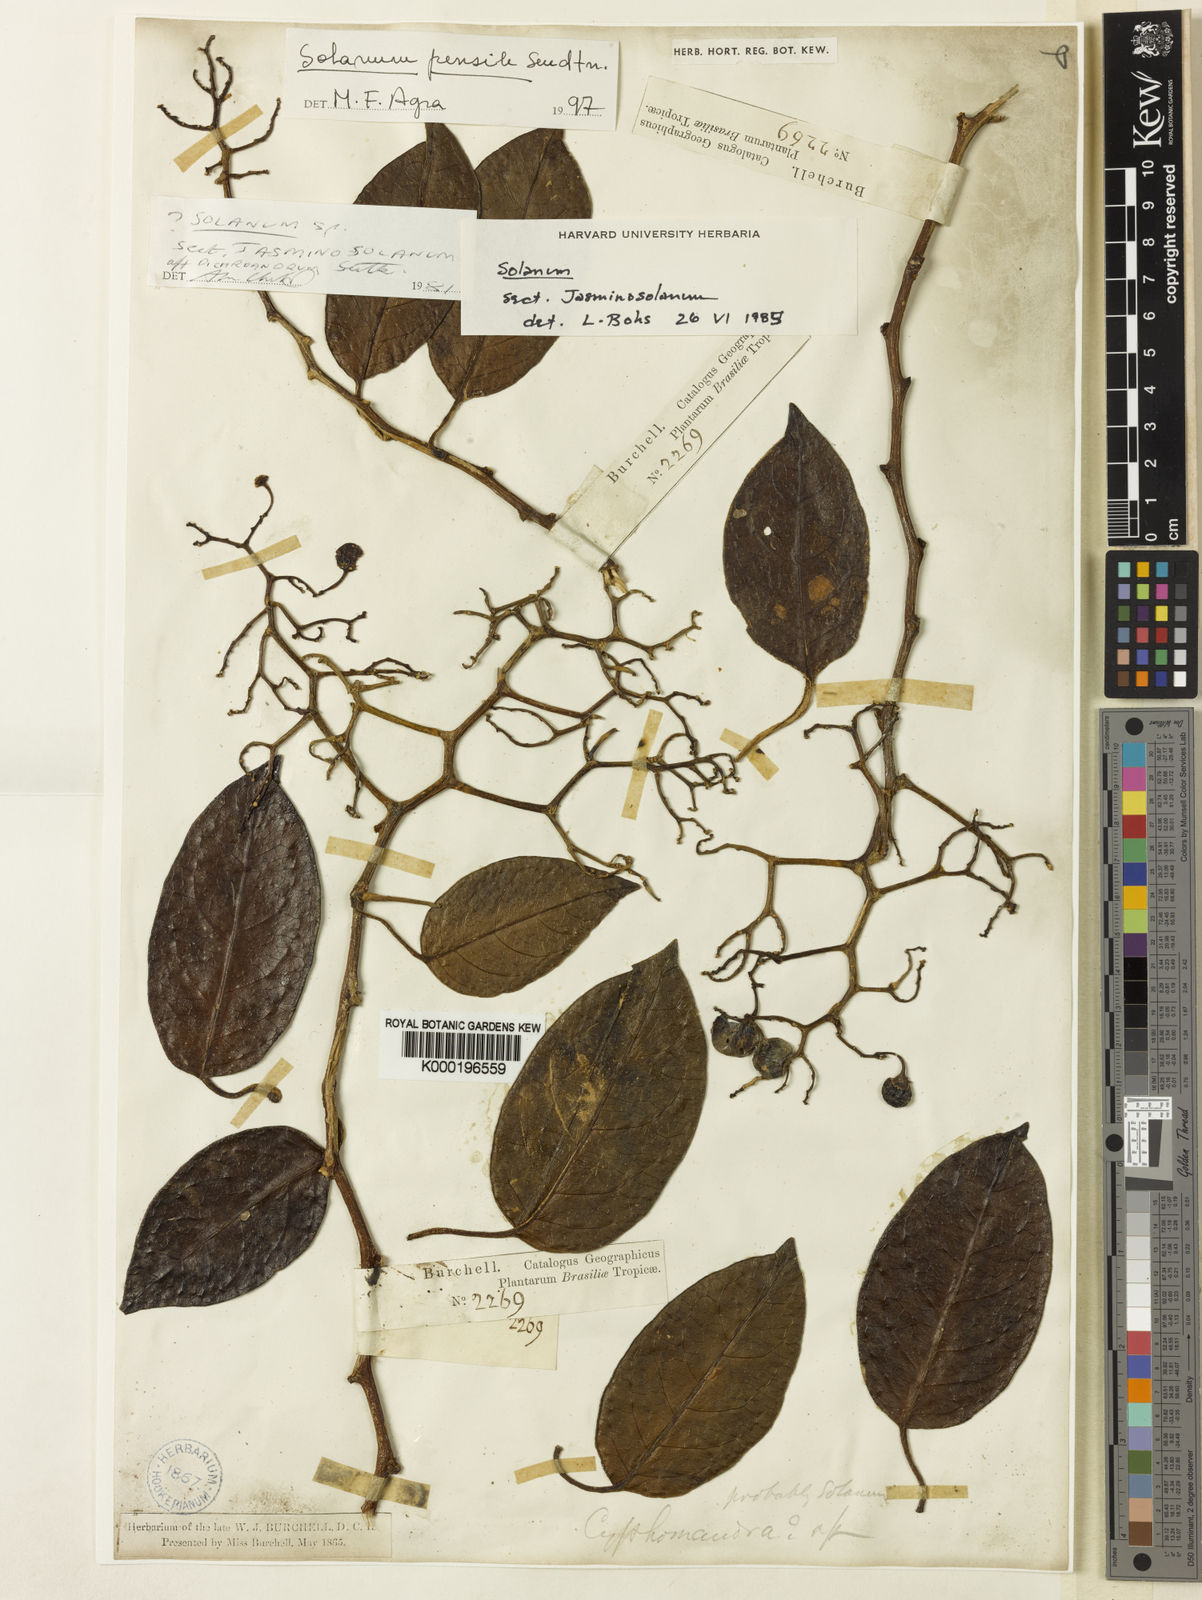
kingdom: Plantae
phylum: Tracheophyta
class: Magnoliopsida
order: Solanales
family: Solanaceae
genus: Solanum
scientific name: Solanum uncinellum
